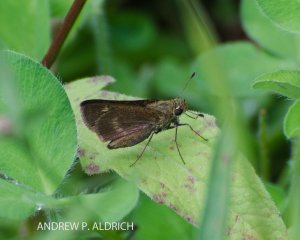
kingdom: Animalia
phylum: Arthropoda
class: Insecta
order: Lepidoptera
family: Hesperiidae
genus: Vernia
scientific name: Vernia verna
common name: Little Glassywing
